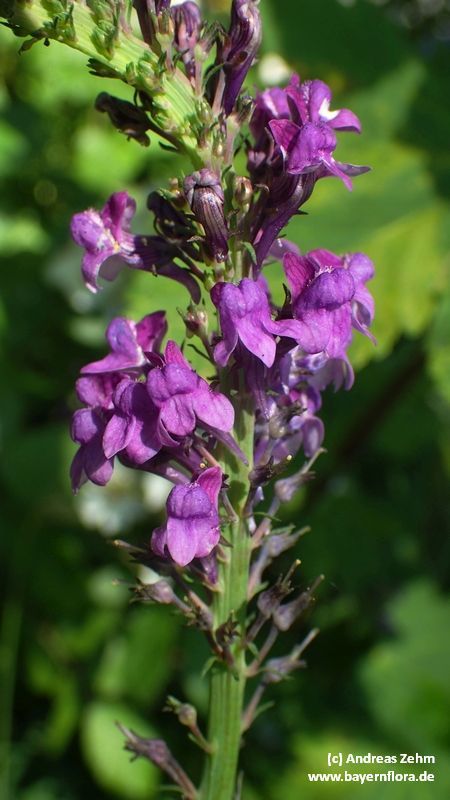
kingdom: Plantae
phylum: Tracheophyta
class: Magnoliopsida
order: Lamiales
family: Plantaginaceae
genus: Linaria
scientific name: Linaria purpurea
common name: Purple toadflax
